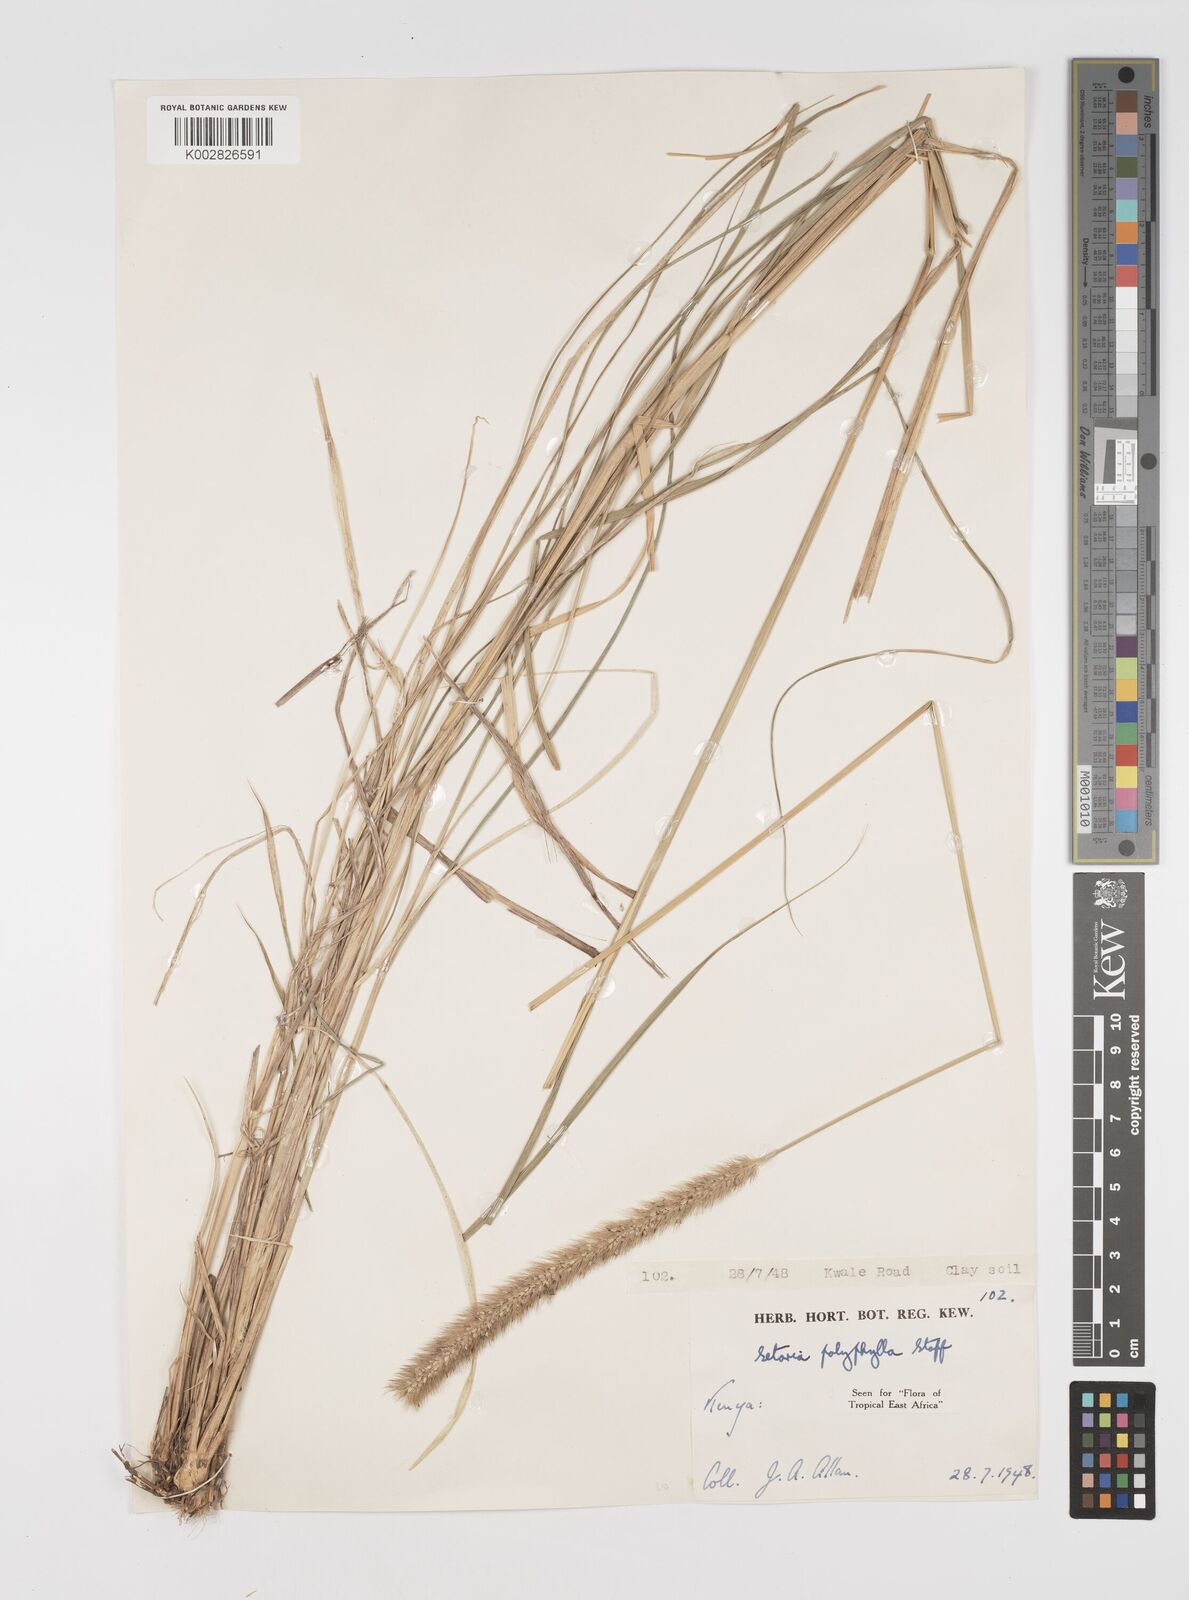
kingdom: Plantae
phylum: Tracheophyta
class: Liliopsida
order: Poales
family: Poaceae
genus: Setaria
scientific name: Setaria incrassata
